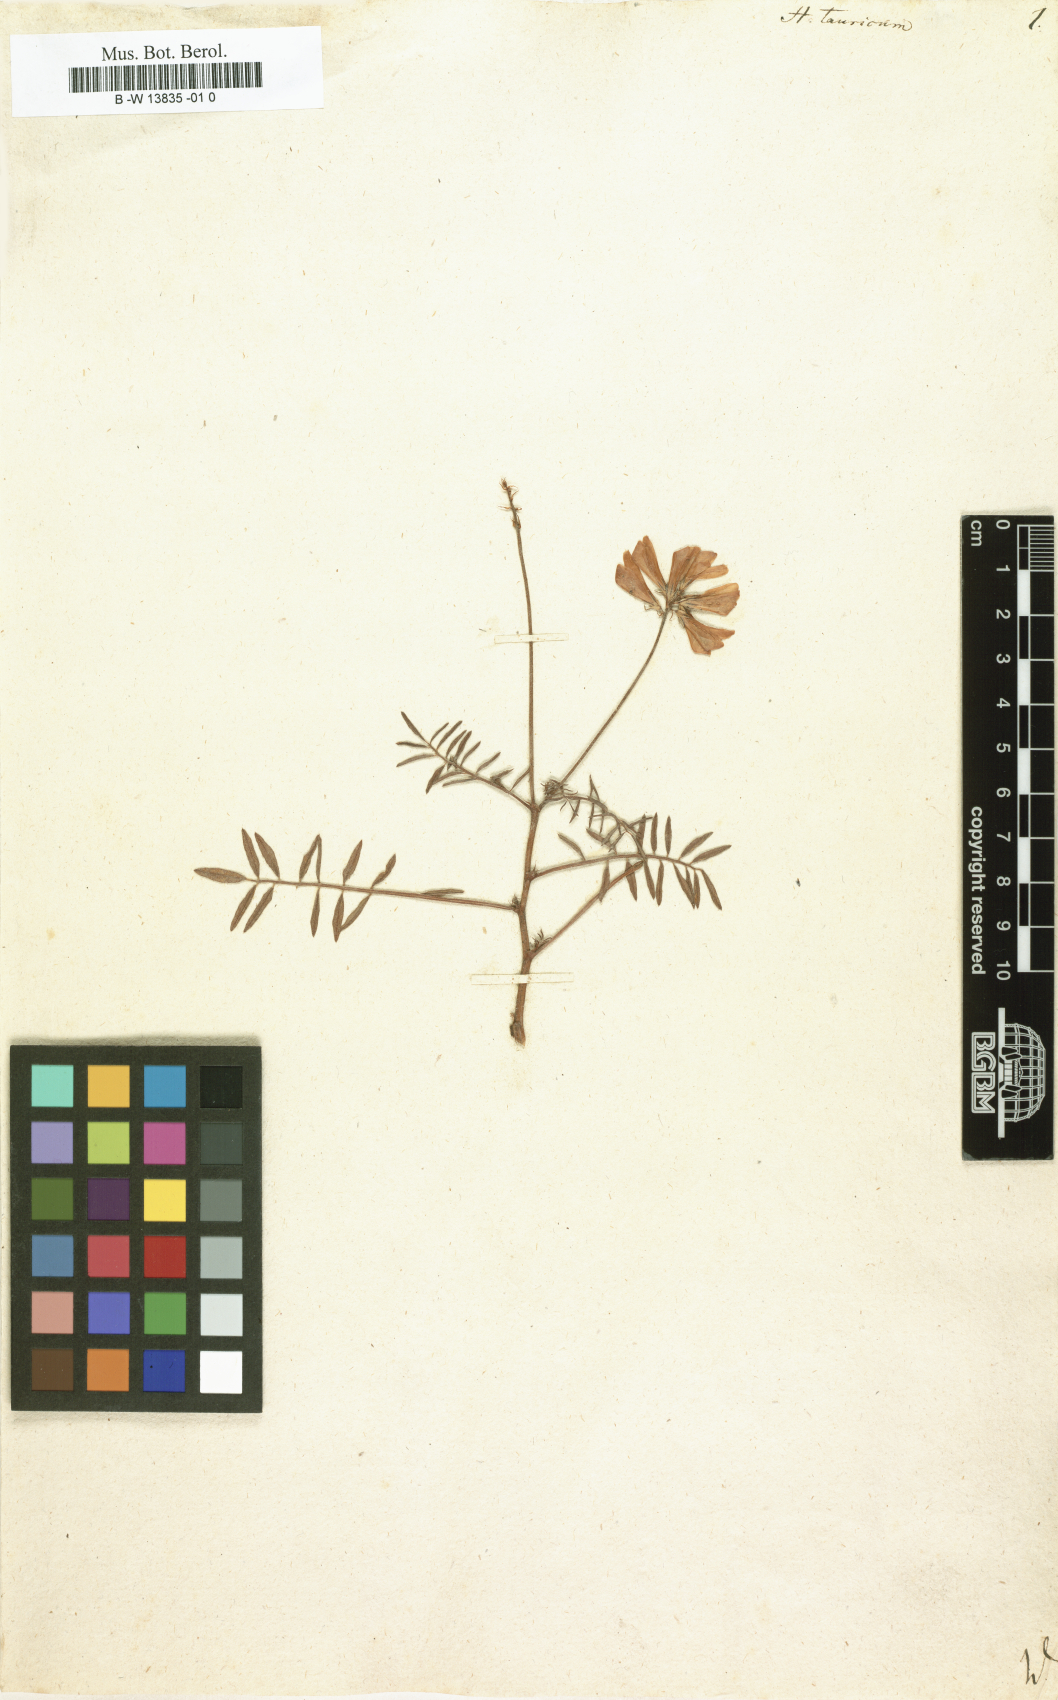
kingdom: Plantae
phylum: Tracheophyta
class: Magnoliopsida
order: Fabales
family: Fabaceae
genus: Hedysarum
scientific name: Hedysarum tauricum
